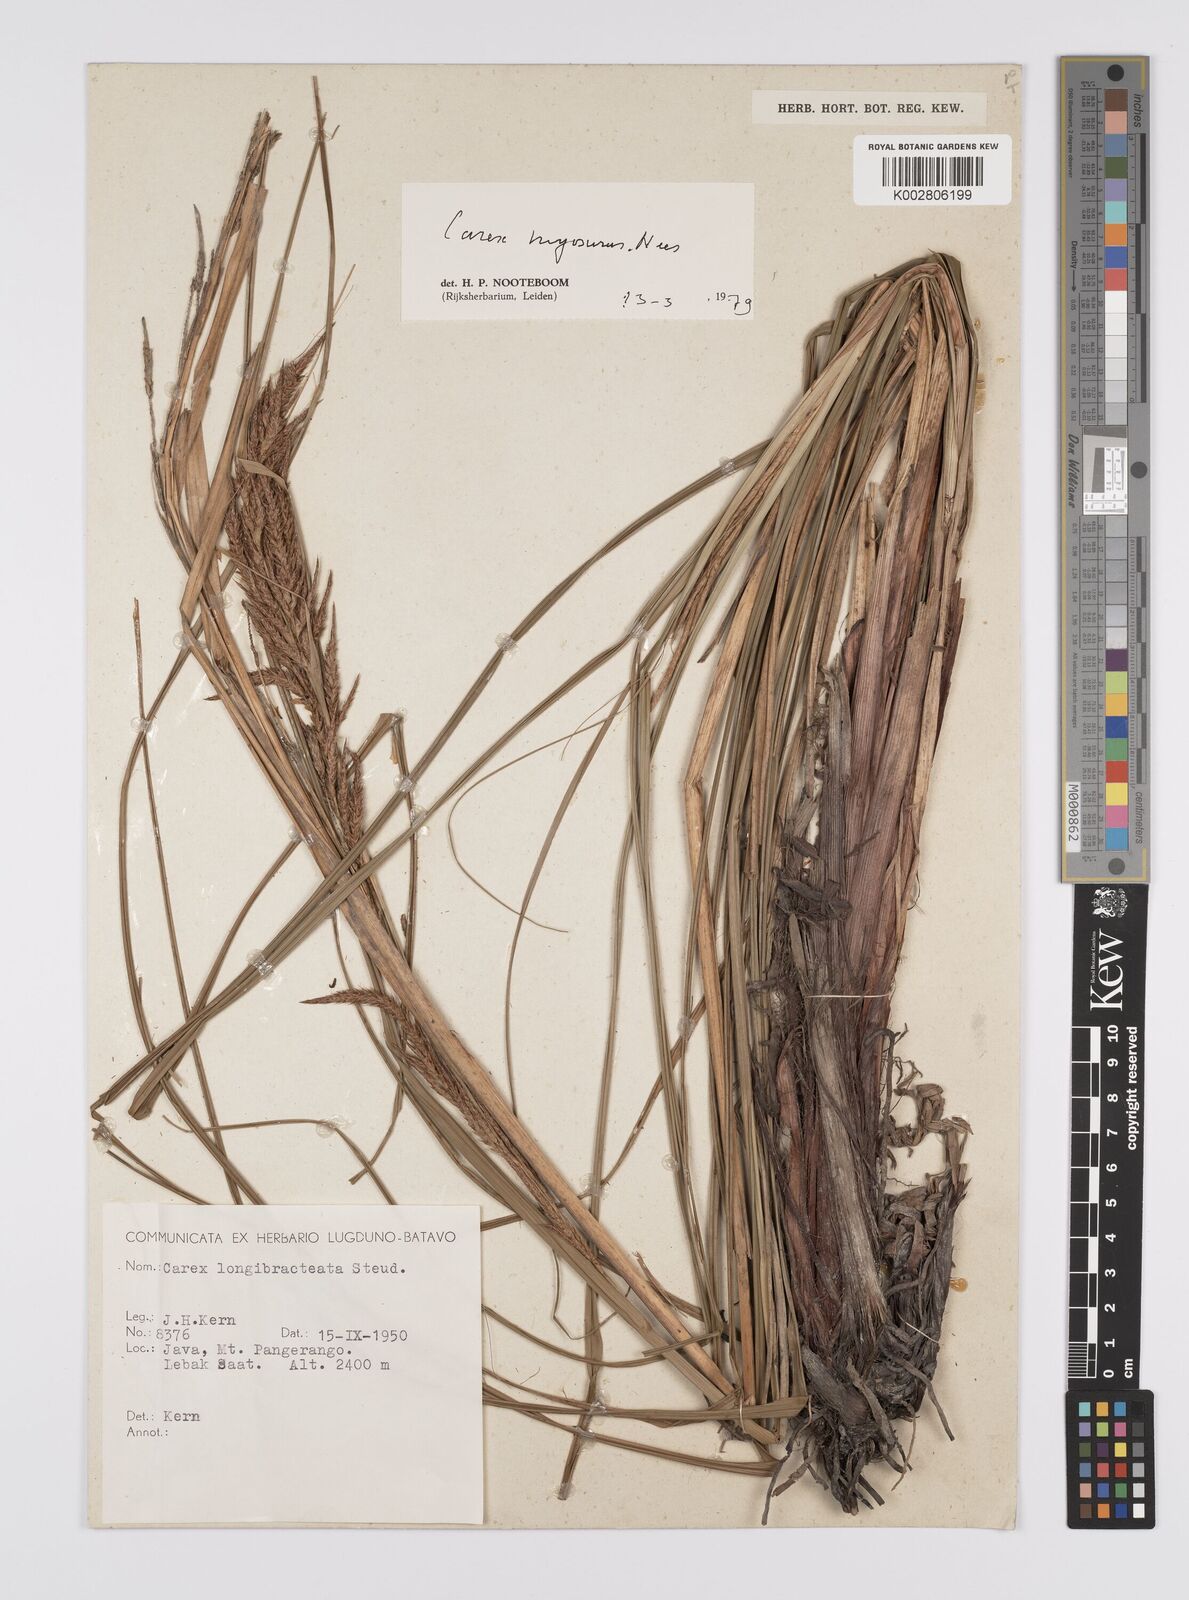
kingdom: Plantae
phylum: Tracheophyta
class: Liliopsida
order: Poales
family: Cyperaceae
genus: Carex
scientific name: Carex myosurus
